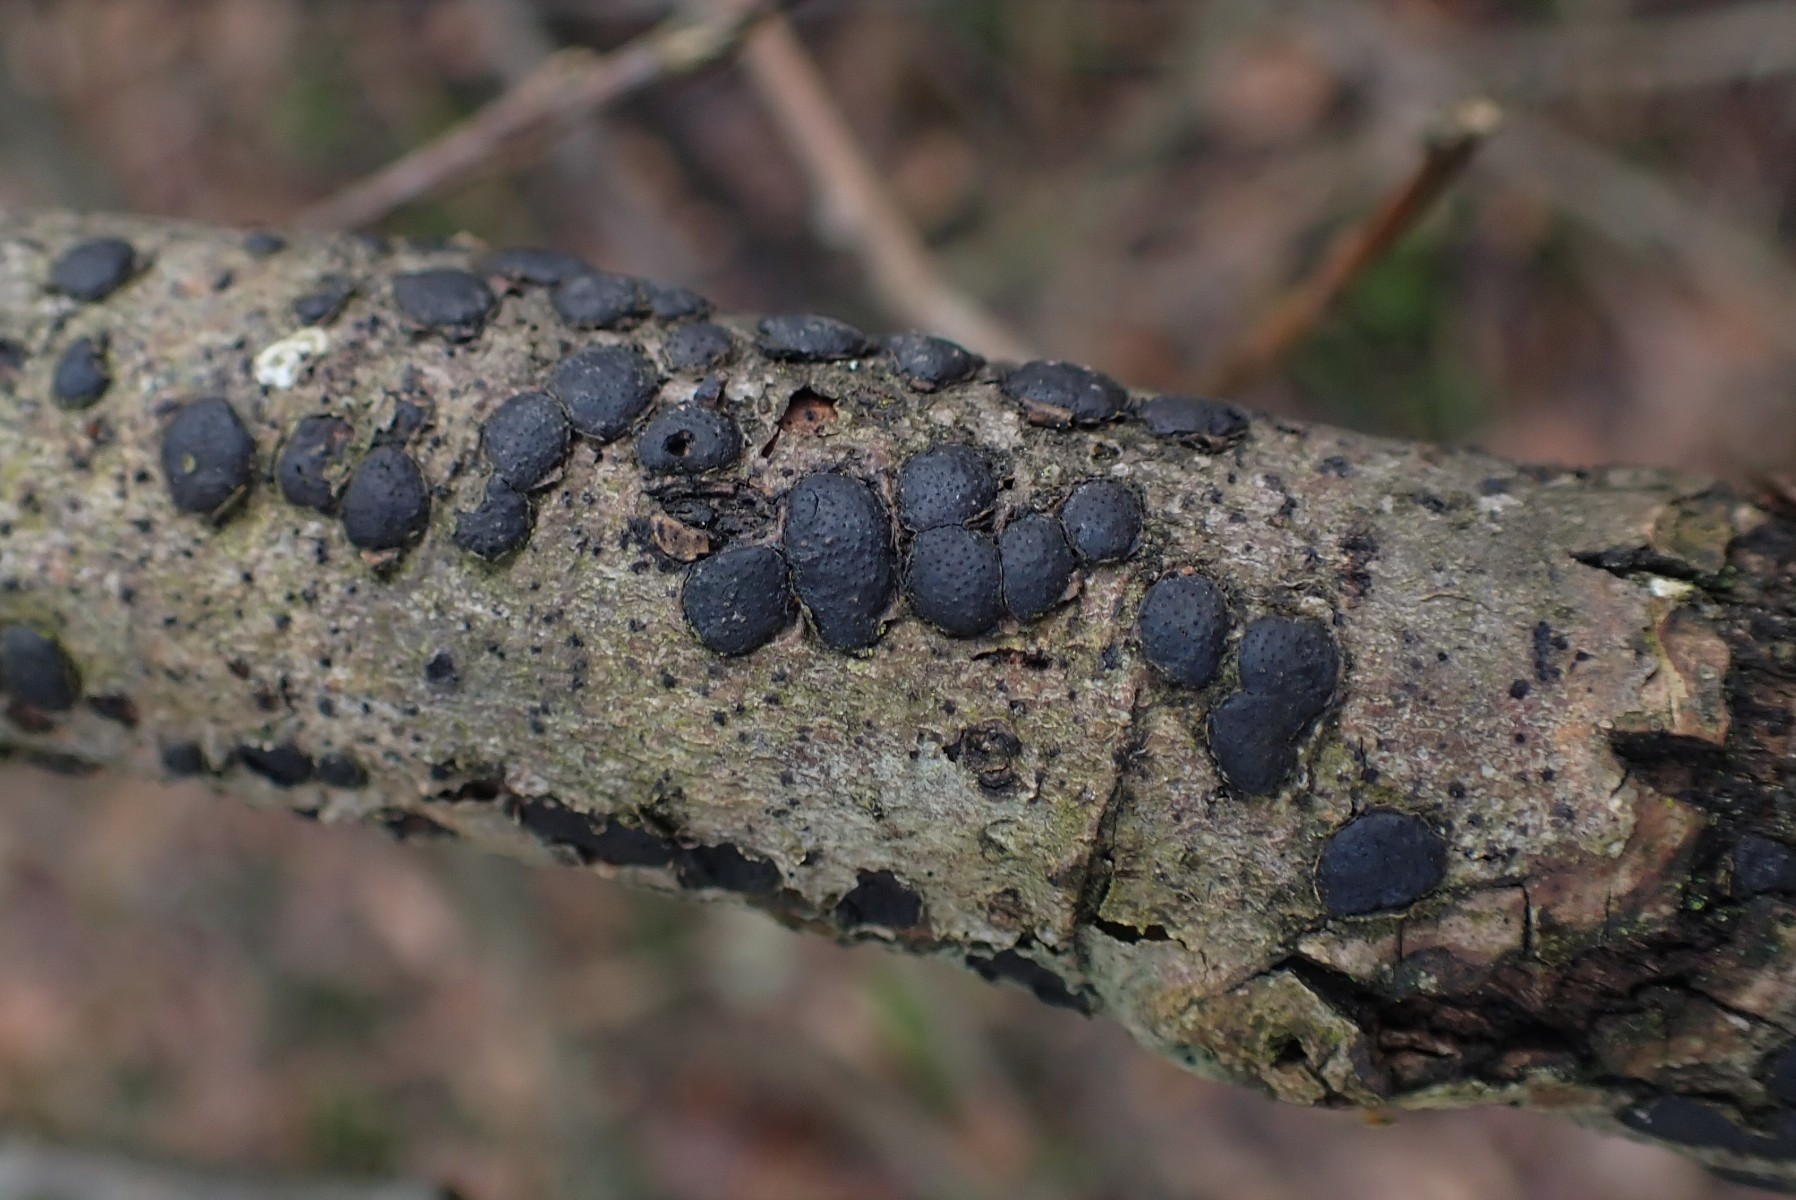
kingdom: Fungi
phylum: Ascomycota
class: Sordariomycetes
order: Xylariales
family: Diatrypaceae
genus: Diatrype
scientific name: Diatrype bullata
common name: pile-kulskorpe
